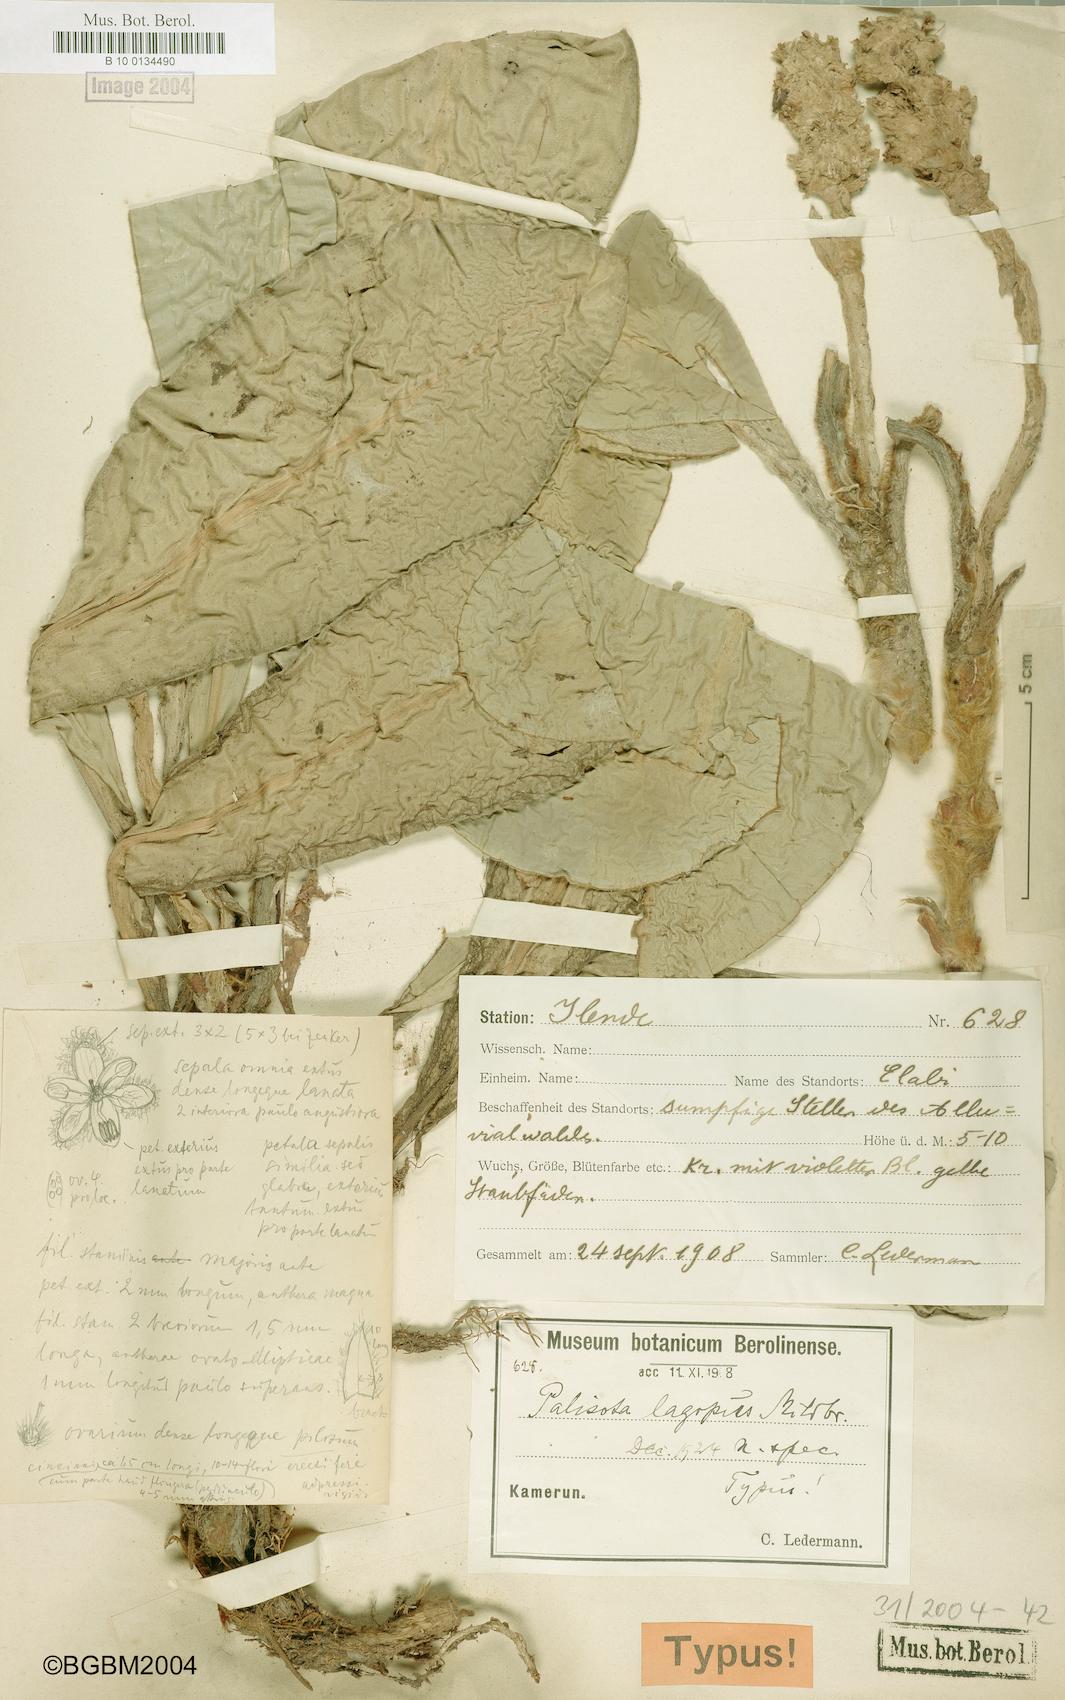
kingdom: Plantae
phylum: Tracheophyta
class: Liliopsida
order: Commelinales
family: Commelinaceae
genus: Palisota
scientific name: Palisota lagopus
